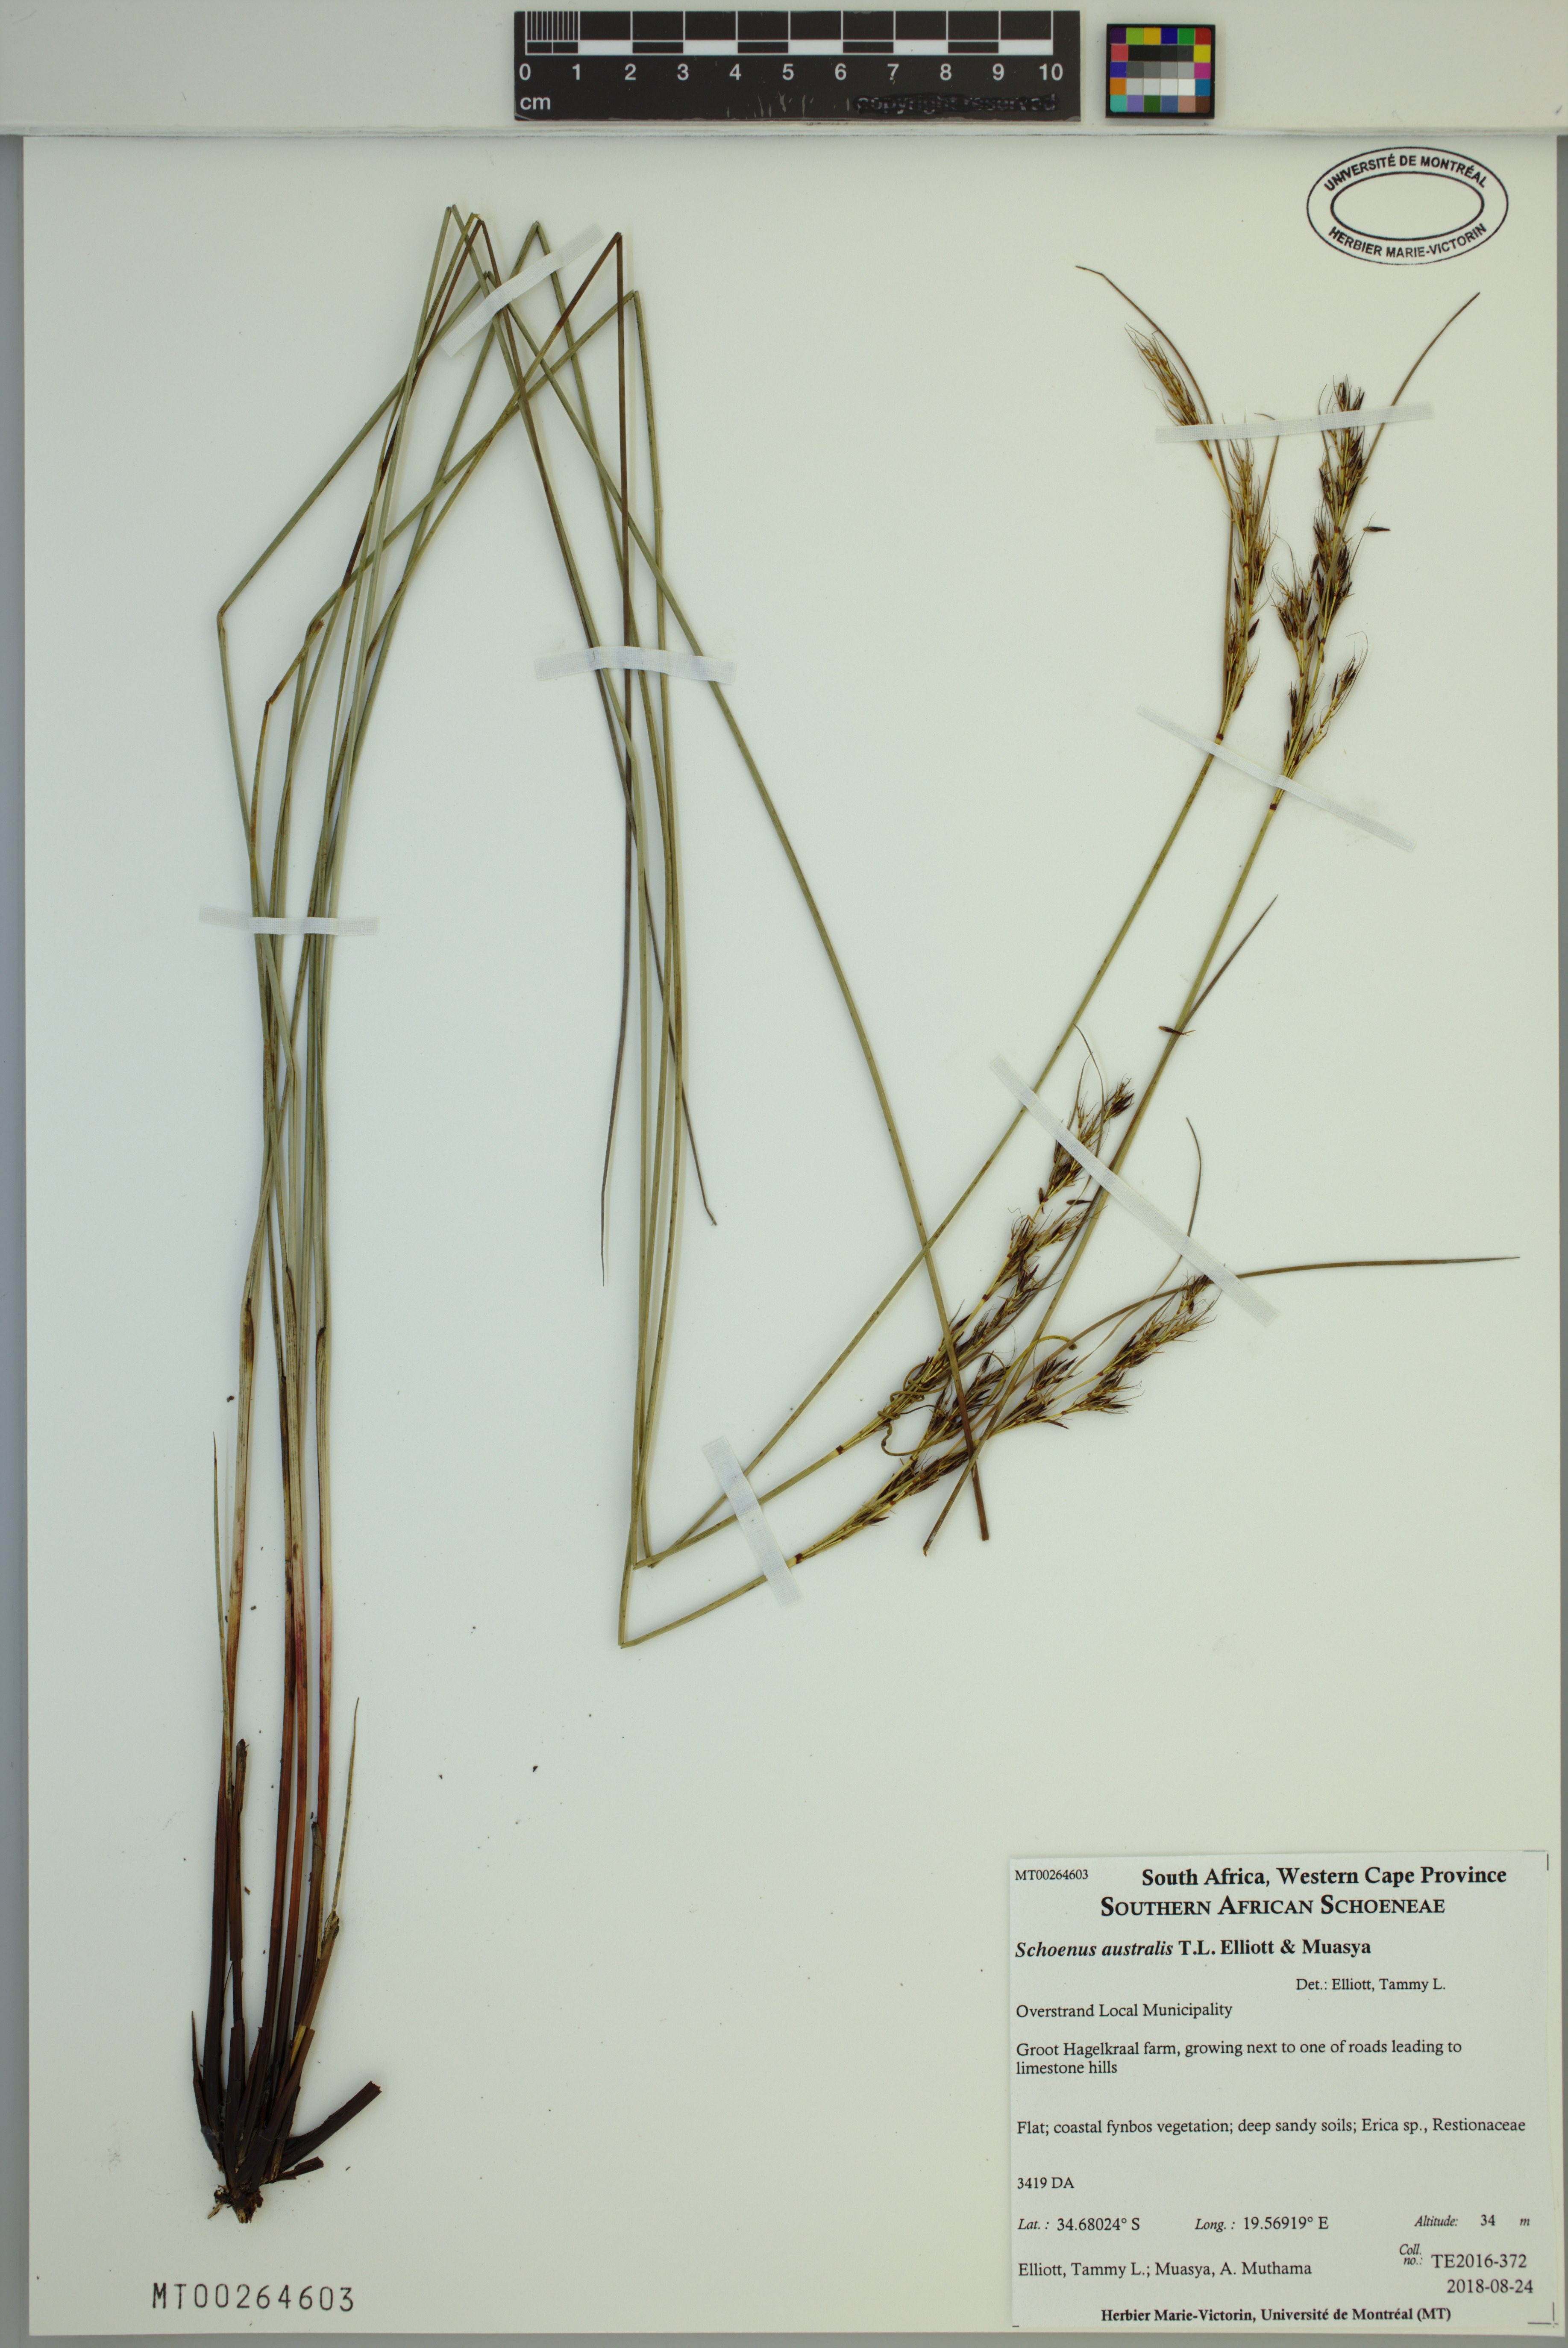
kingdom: Plantae
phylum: Tracheophyta
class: Liliopsida
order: Poales
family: Cyperaceae
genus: Schoenus
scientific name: Schoenus australis
